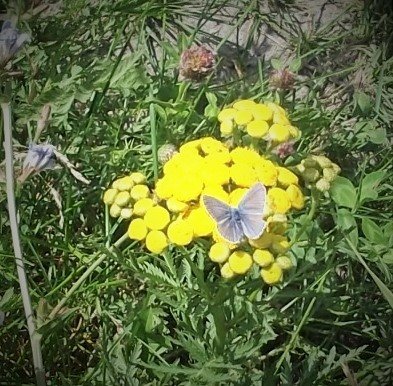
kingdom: Animalia
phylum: Arthropoda
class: Insecta
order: Lepidoptera
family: Lycaenidae
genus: Polyommatus
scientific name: Polyommatus icarus
